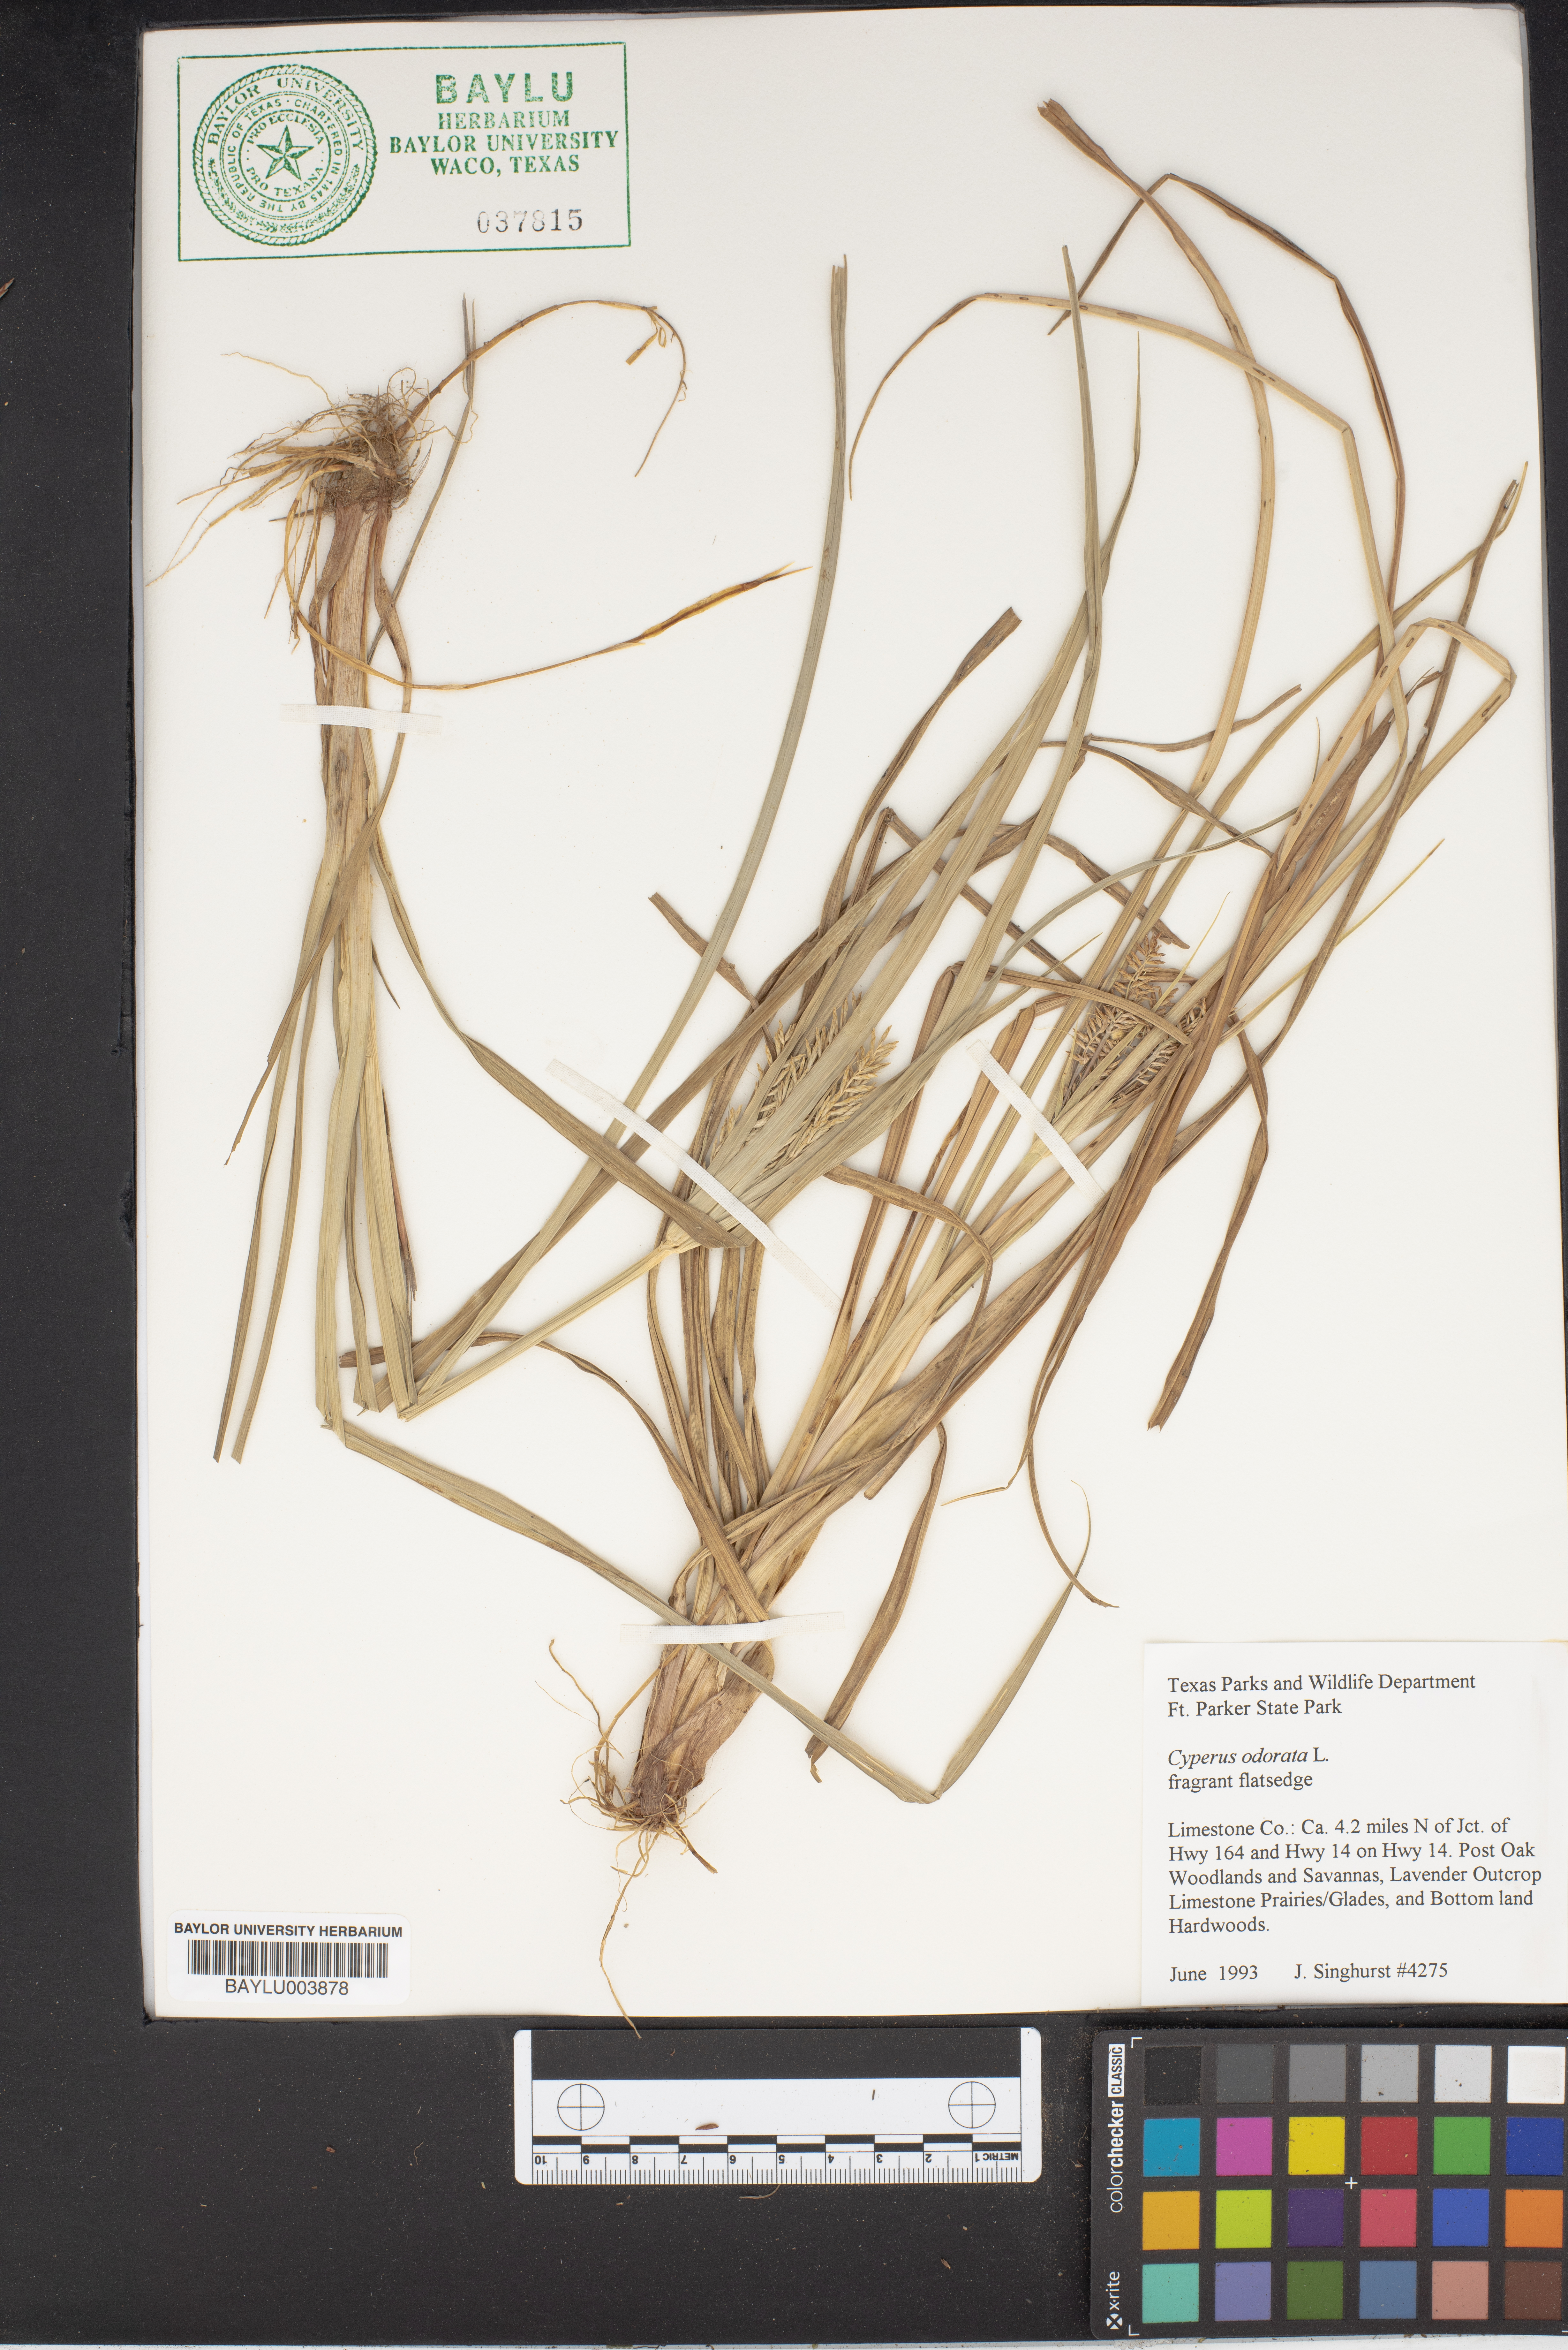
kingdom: Plantae
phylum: Tracheophyta
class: Liliopsida
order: Poales
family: Cyperaceae
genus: Cyperus
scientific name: Cyperus odoratus
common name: Fragrant flatsedge
